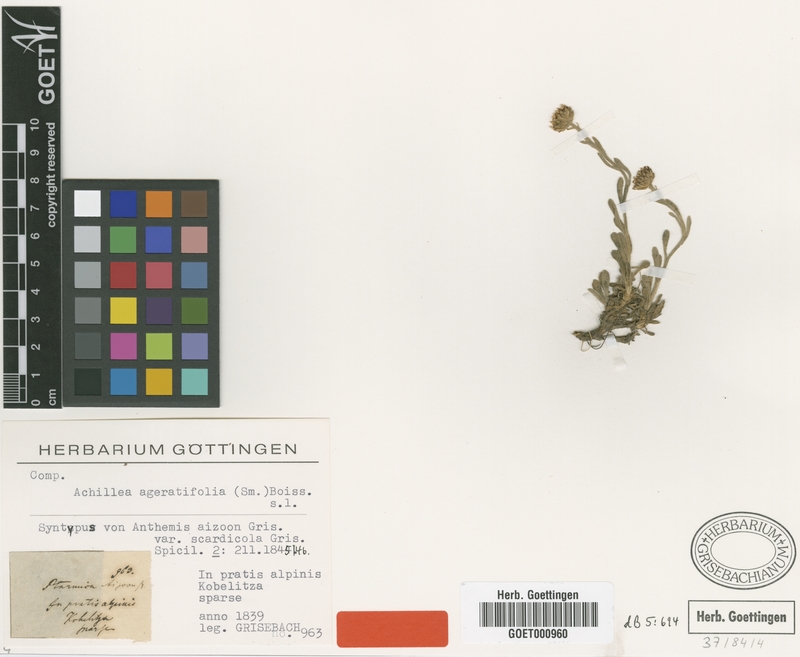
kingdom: Plantae
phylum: Tracheophyta
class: Magnoliopsida
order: Asterales
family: Asteraceae
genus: Achillea
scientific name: Achillea ageratifolia
